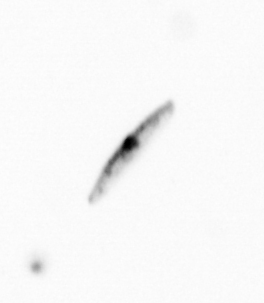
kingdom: Chromista
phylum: Ochrophyta
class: Bacillariophyceae
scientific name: Bacillariophyceae
